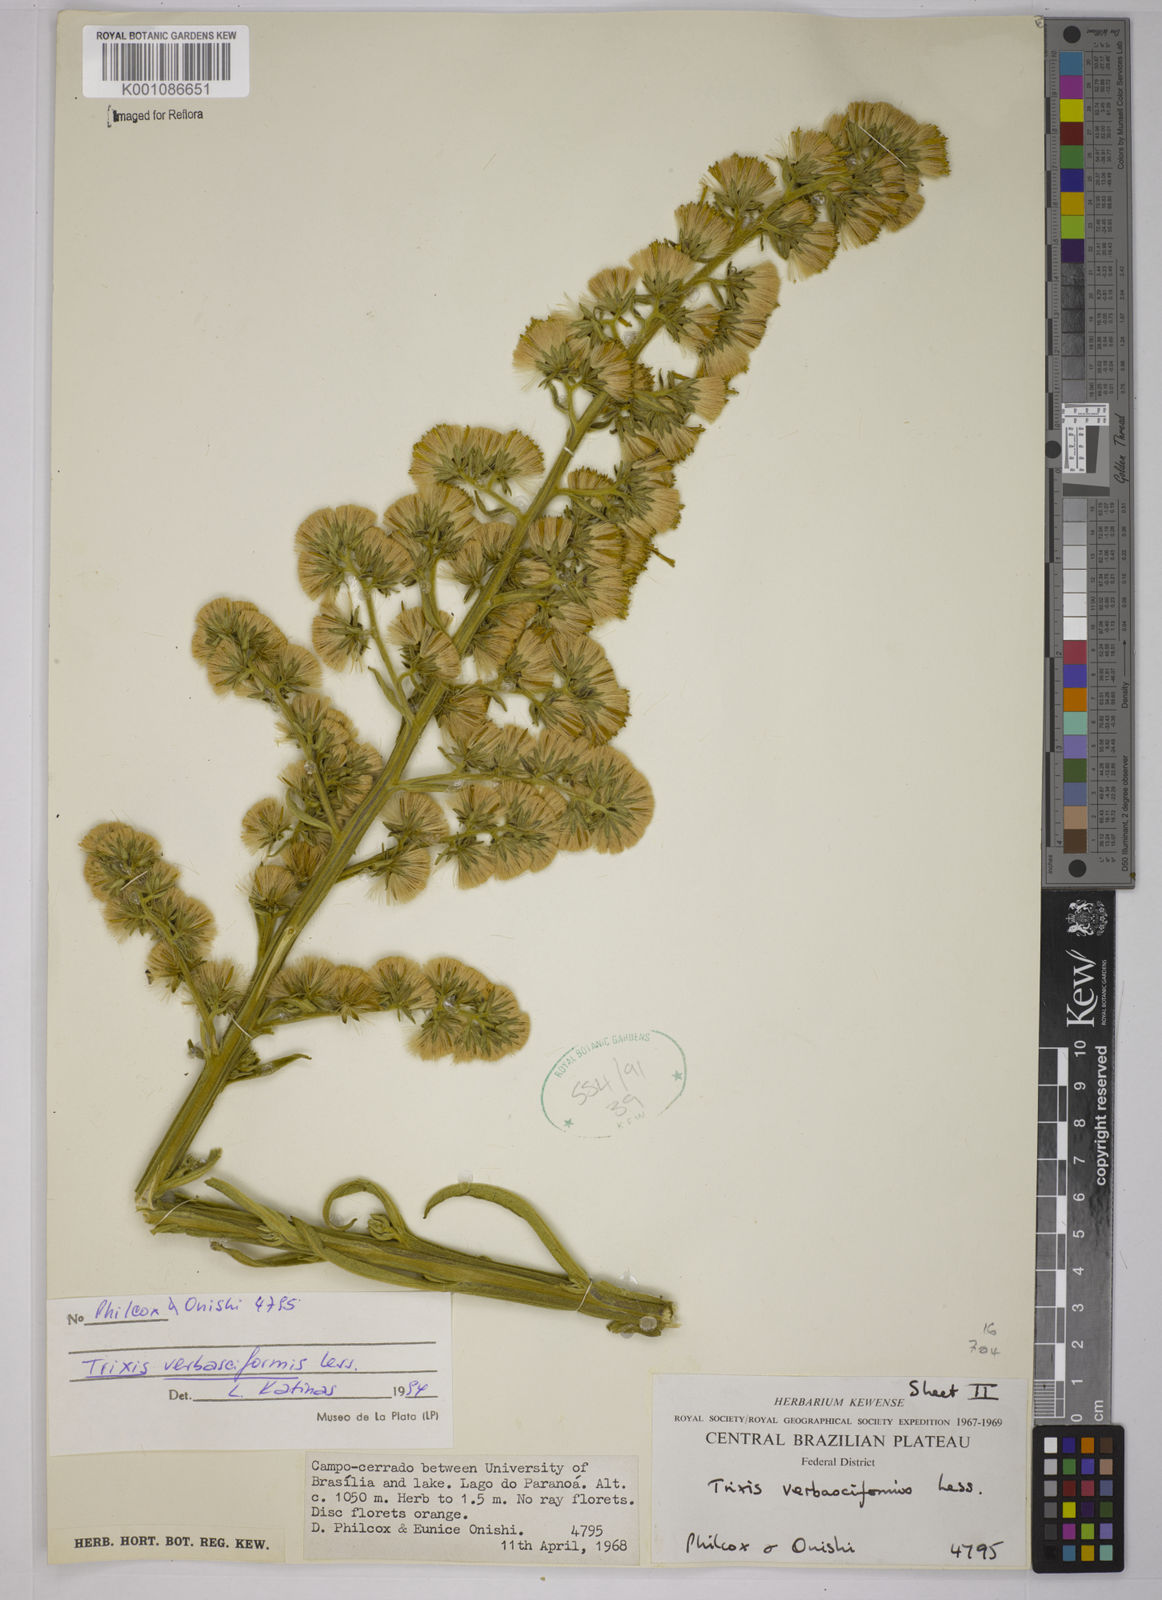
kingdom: Plantae
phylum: Tracheophyta
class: Magnoliopsida
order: Asterales
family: Asteraceae
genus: Trixis
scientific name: Trixis nobilis
